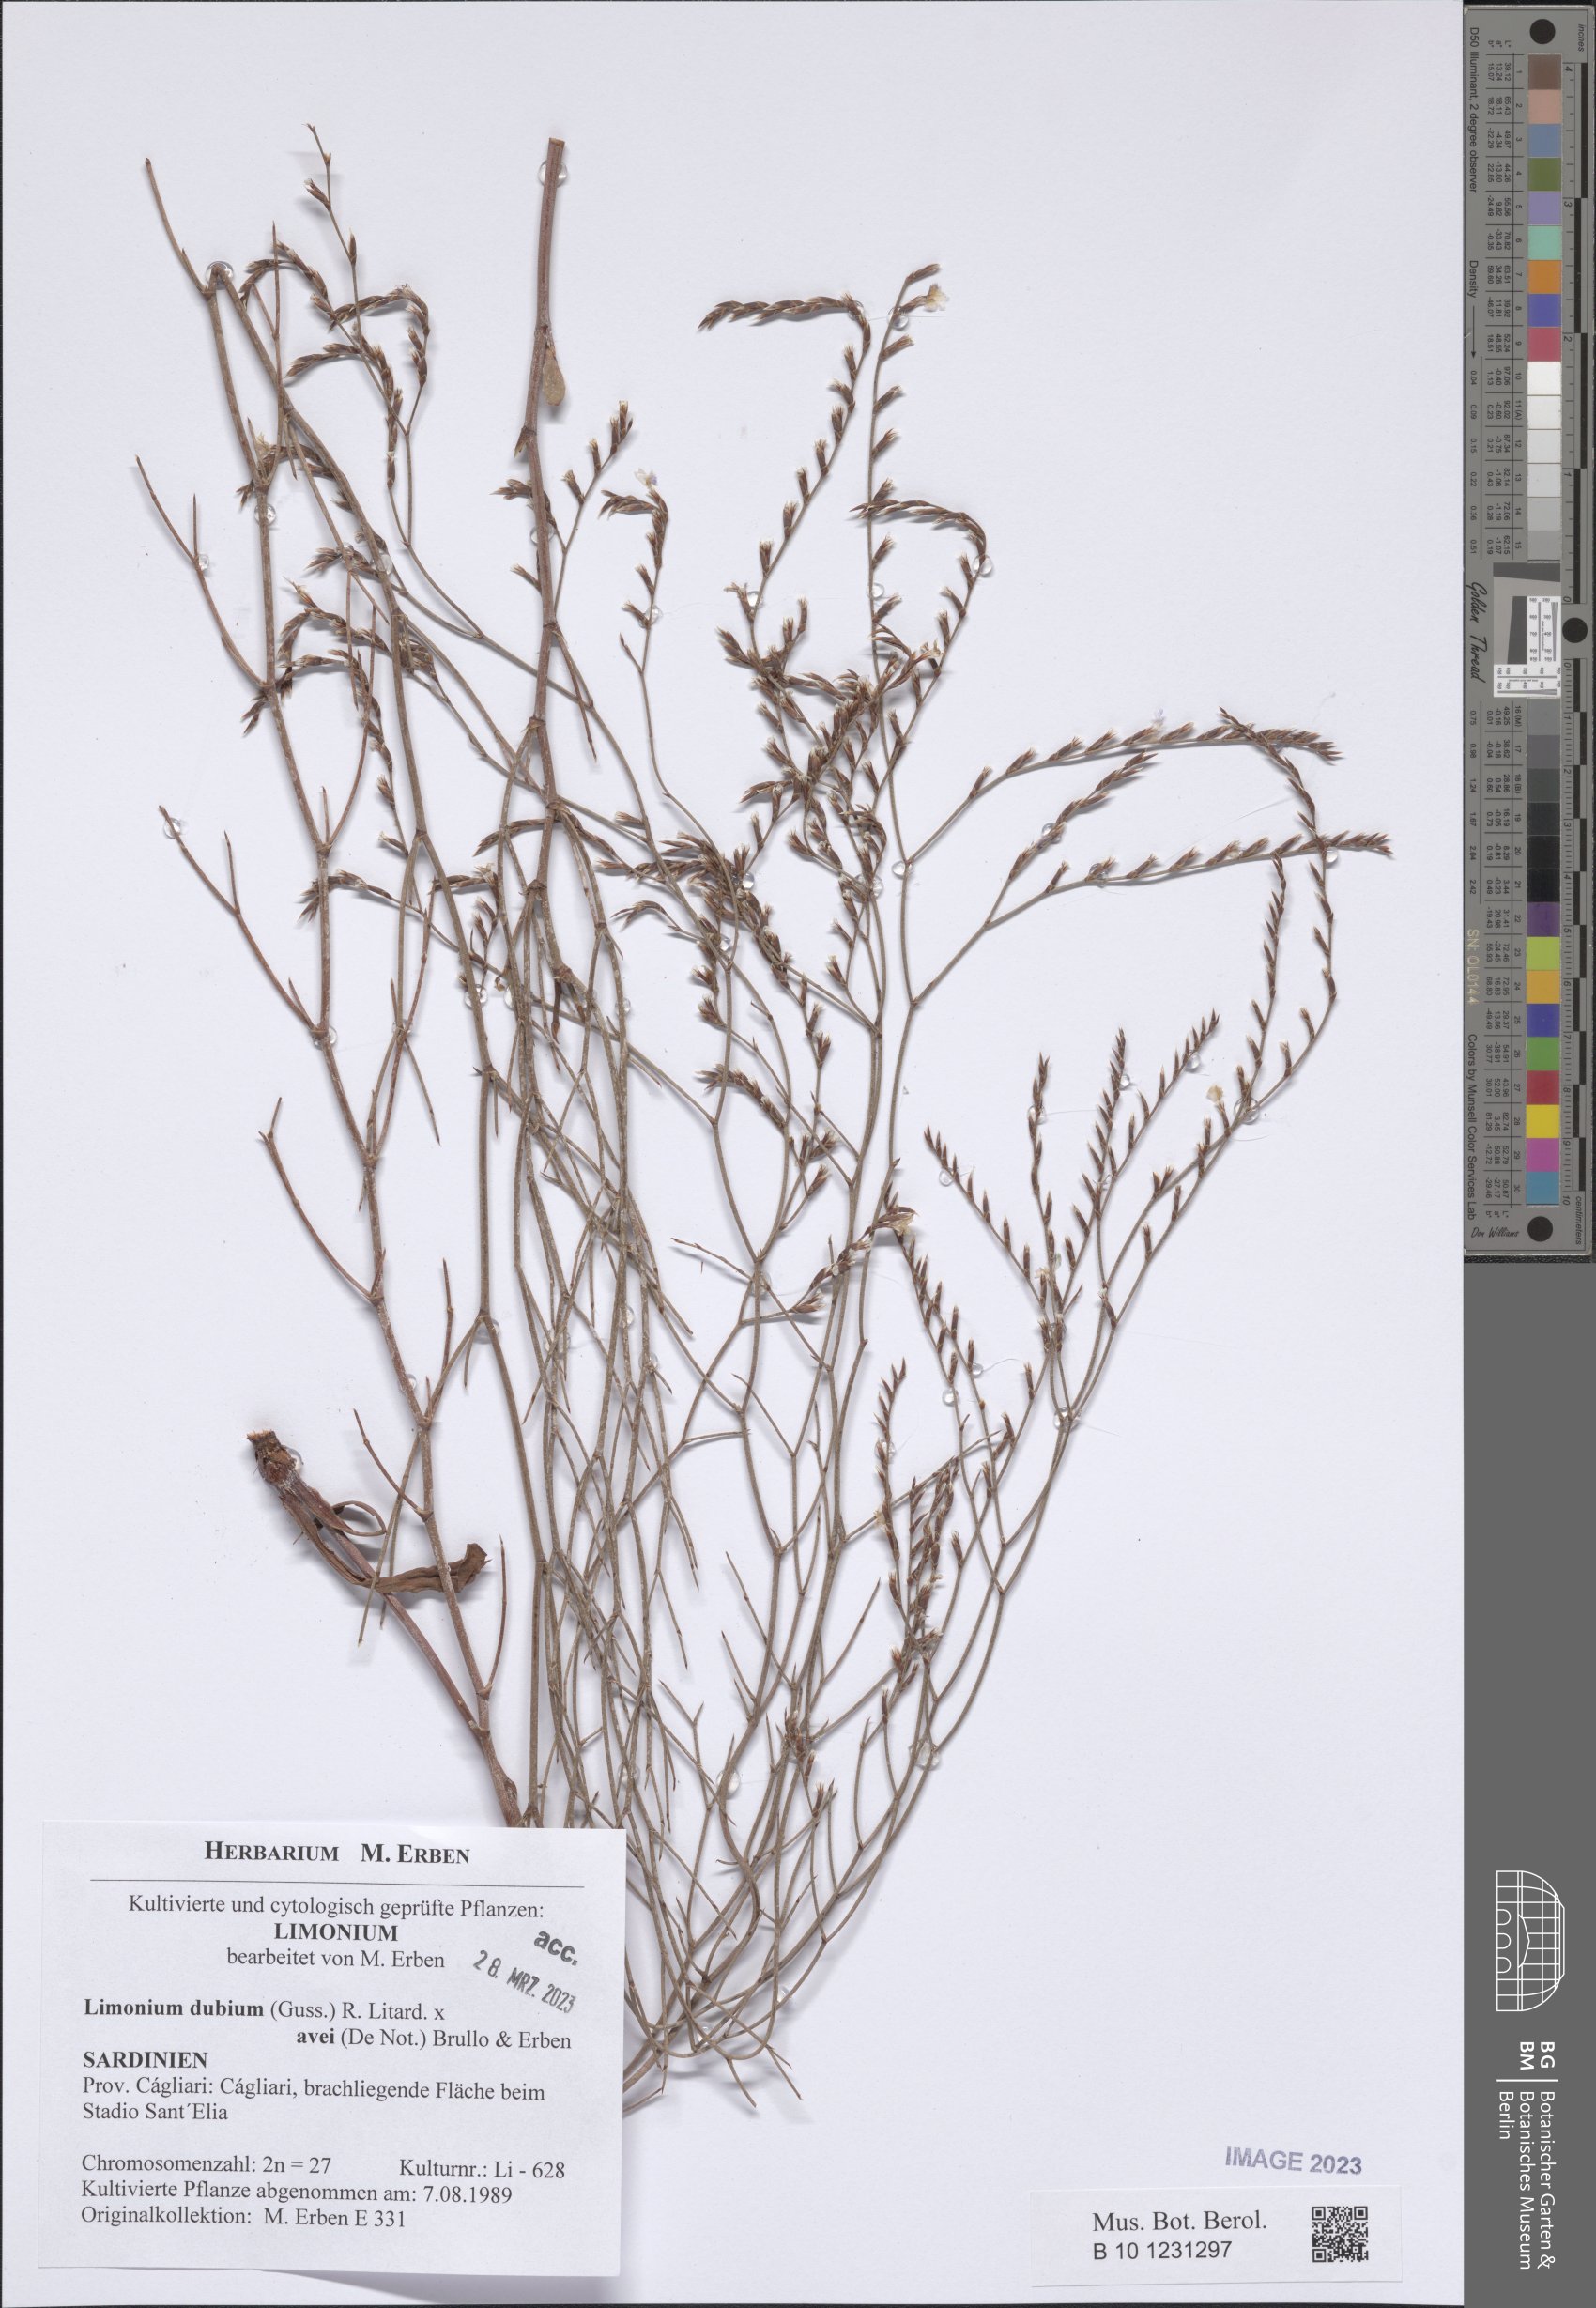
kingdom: Plantae
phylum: Tracheophyta
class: Magnoliopsida
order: Caryophyllales
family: Plumbaginaceae
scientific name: Plumbaginaceae
